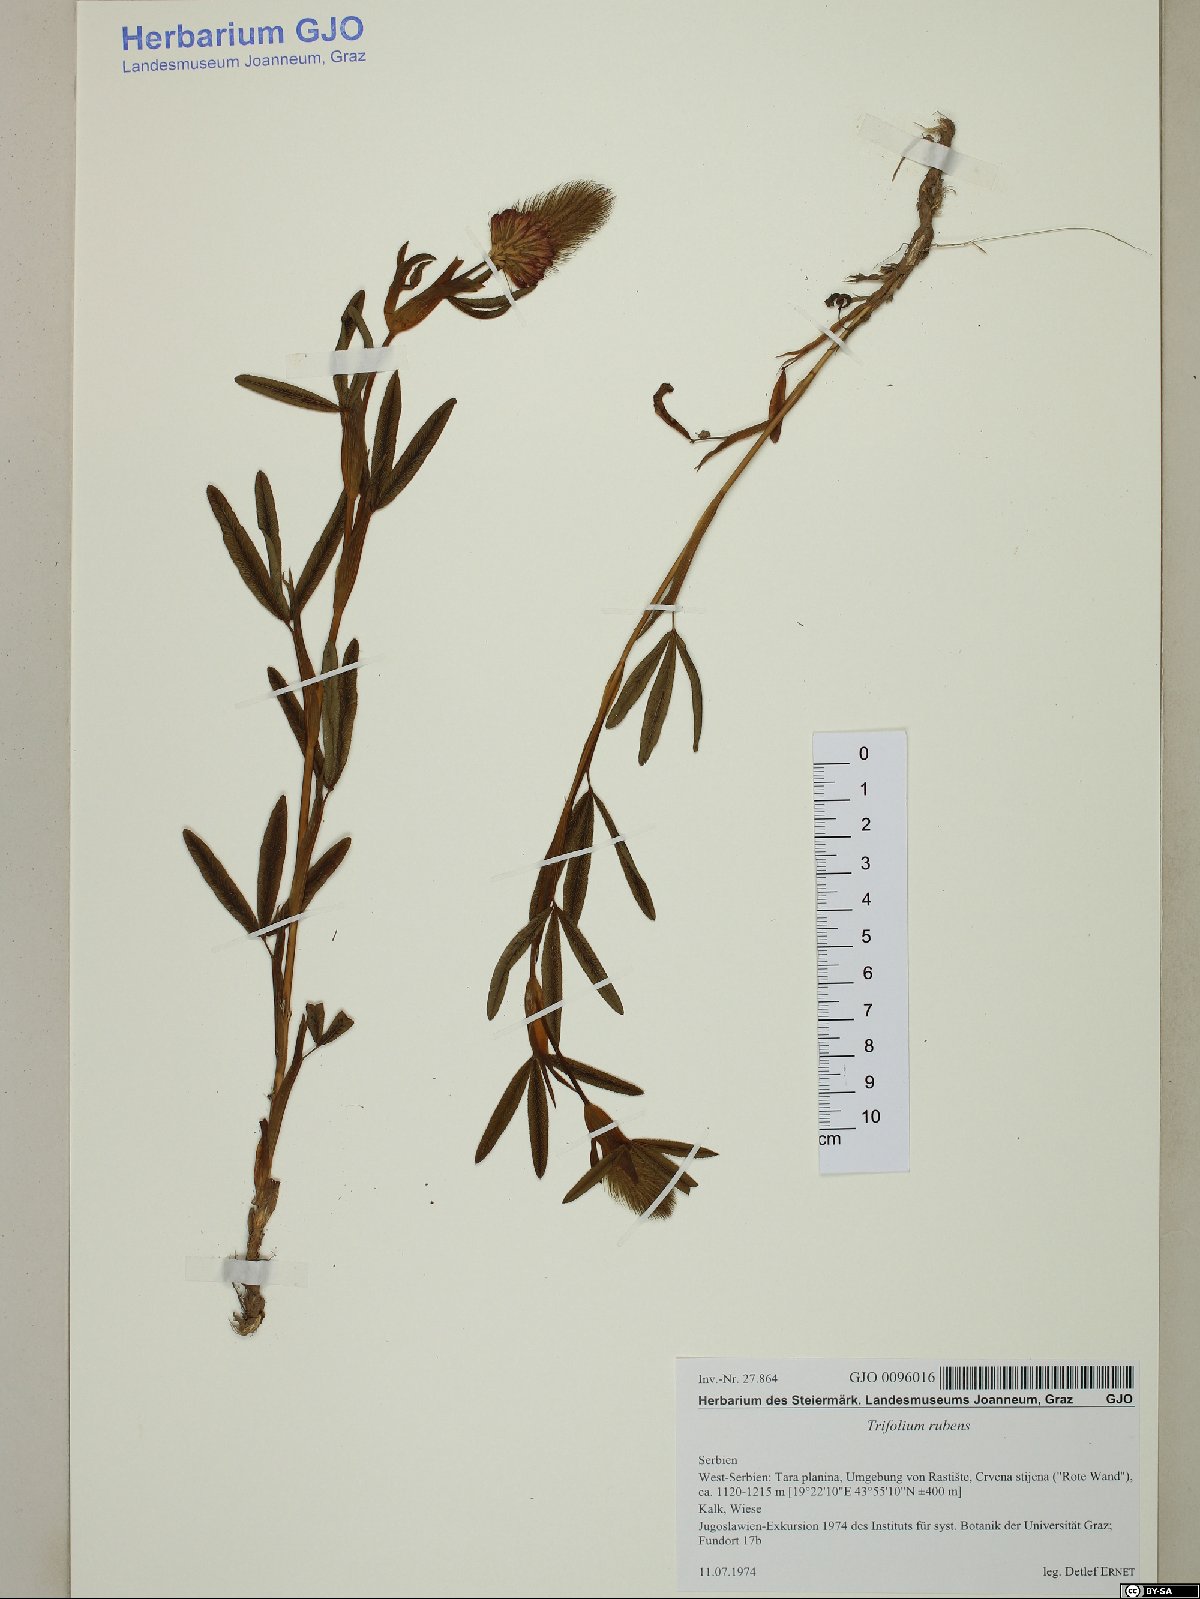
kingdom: Plantae
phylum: Tracheophyta
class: Magnoliopsida
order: Fabales
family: Fabaceae
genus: Trifolium
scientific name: Trifolium rubens
